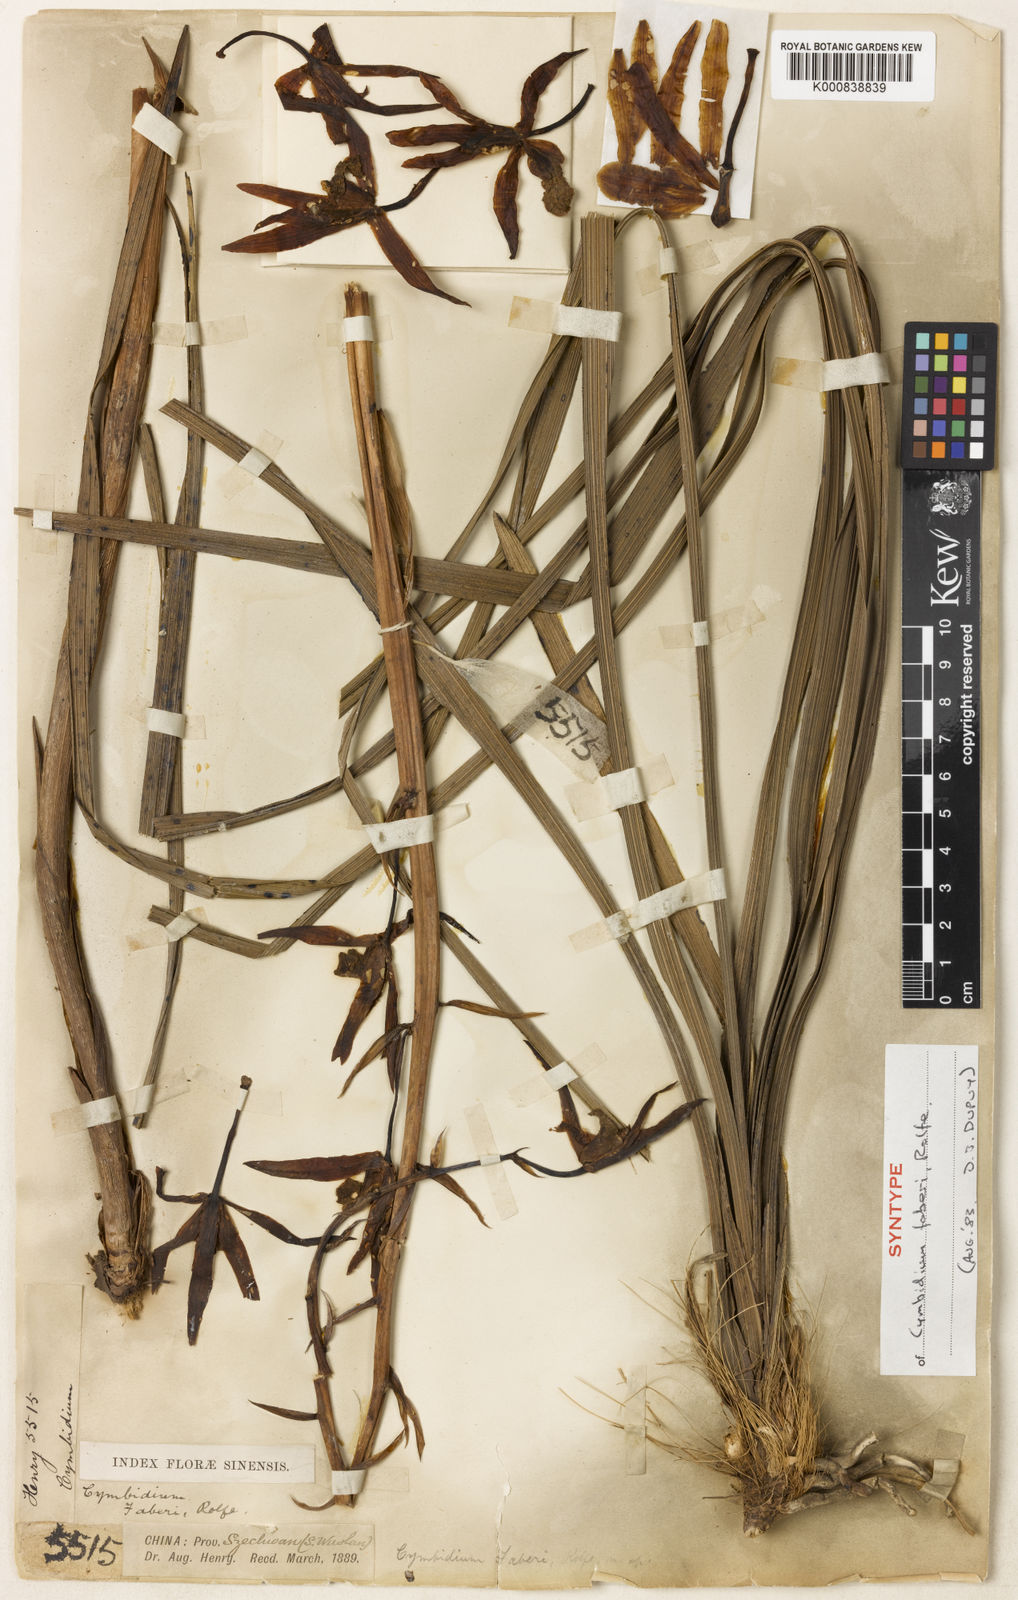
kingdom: Plantae
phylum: Tracheophyta
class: Liliopsida
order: Asparagales
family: Orchidaceae
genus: Cymbidium
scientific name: Cymbidium faberi
